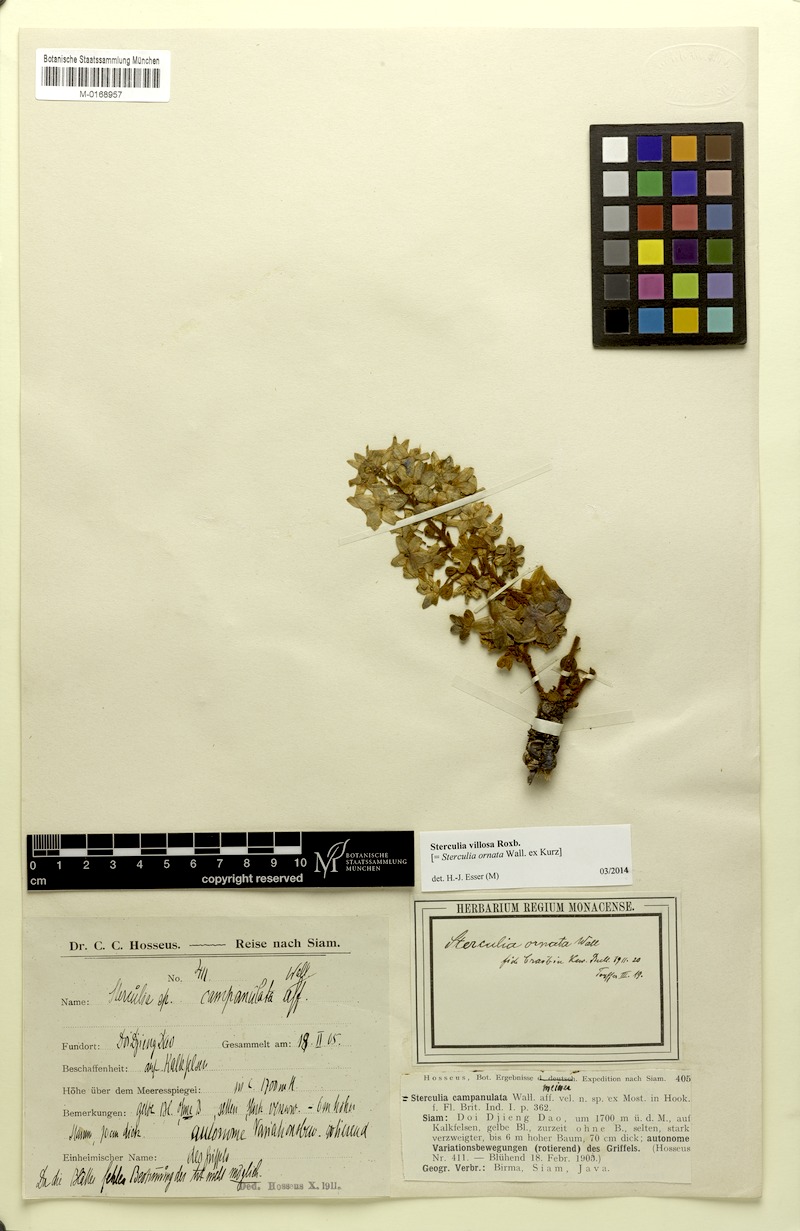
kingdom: Plantae
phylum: Tracheophyta
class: Magnoliopsida
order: Malvales
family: Malvaceae
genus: Sterculia
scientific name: Sterculia villosa
